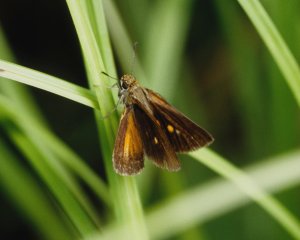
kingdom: Animalia
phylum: Arthropoda
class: Insecta
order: Lepidoptera
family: Hesperiidae
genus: Euphyes
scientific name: Euphyes dukesi
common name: Dukes' Skipper
